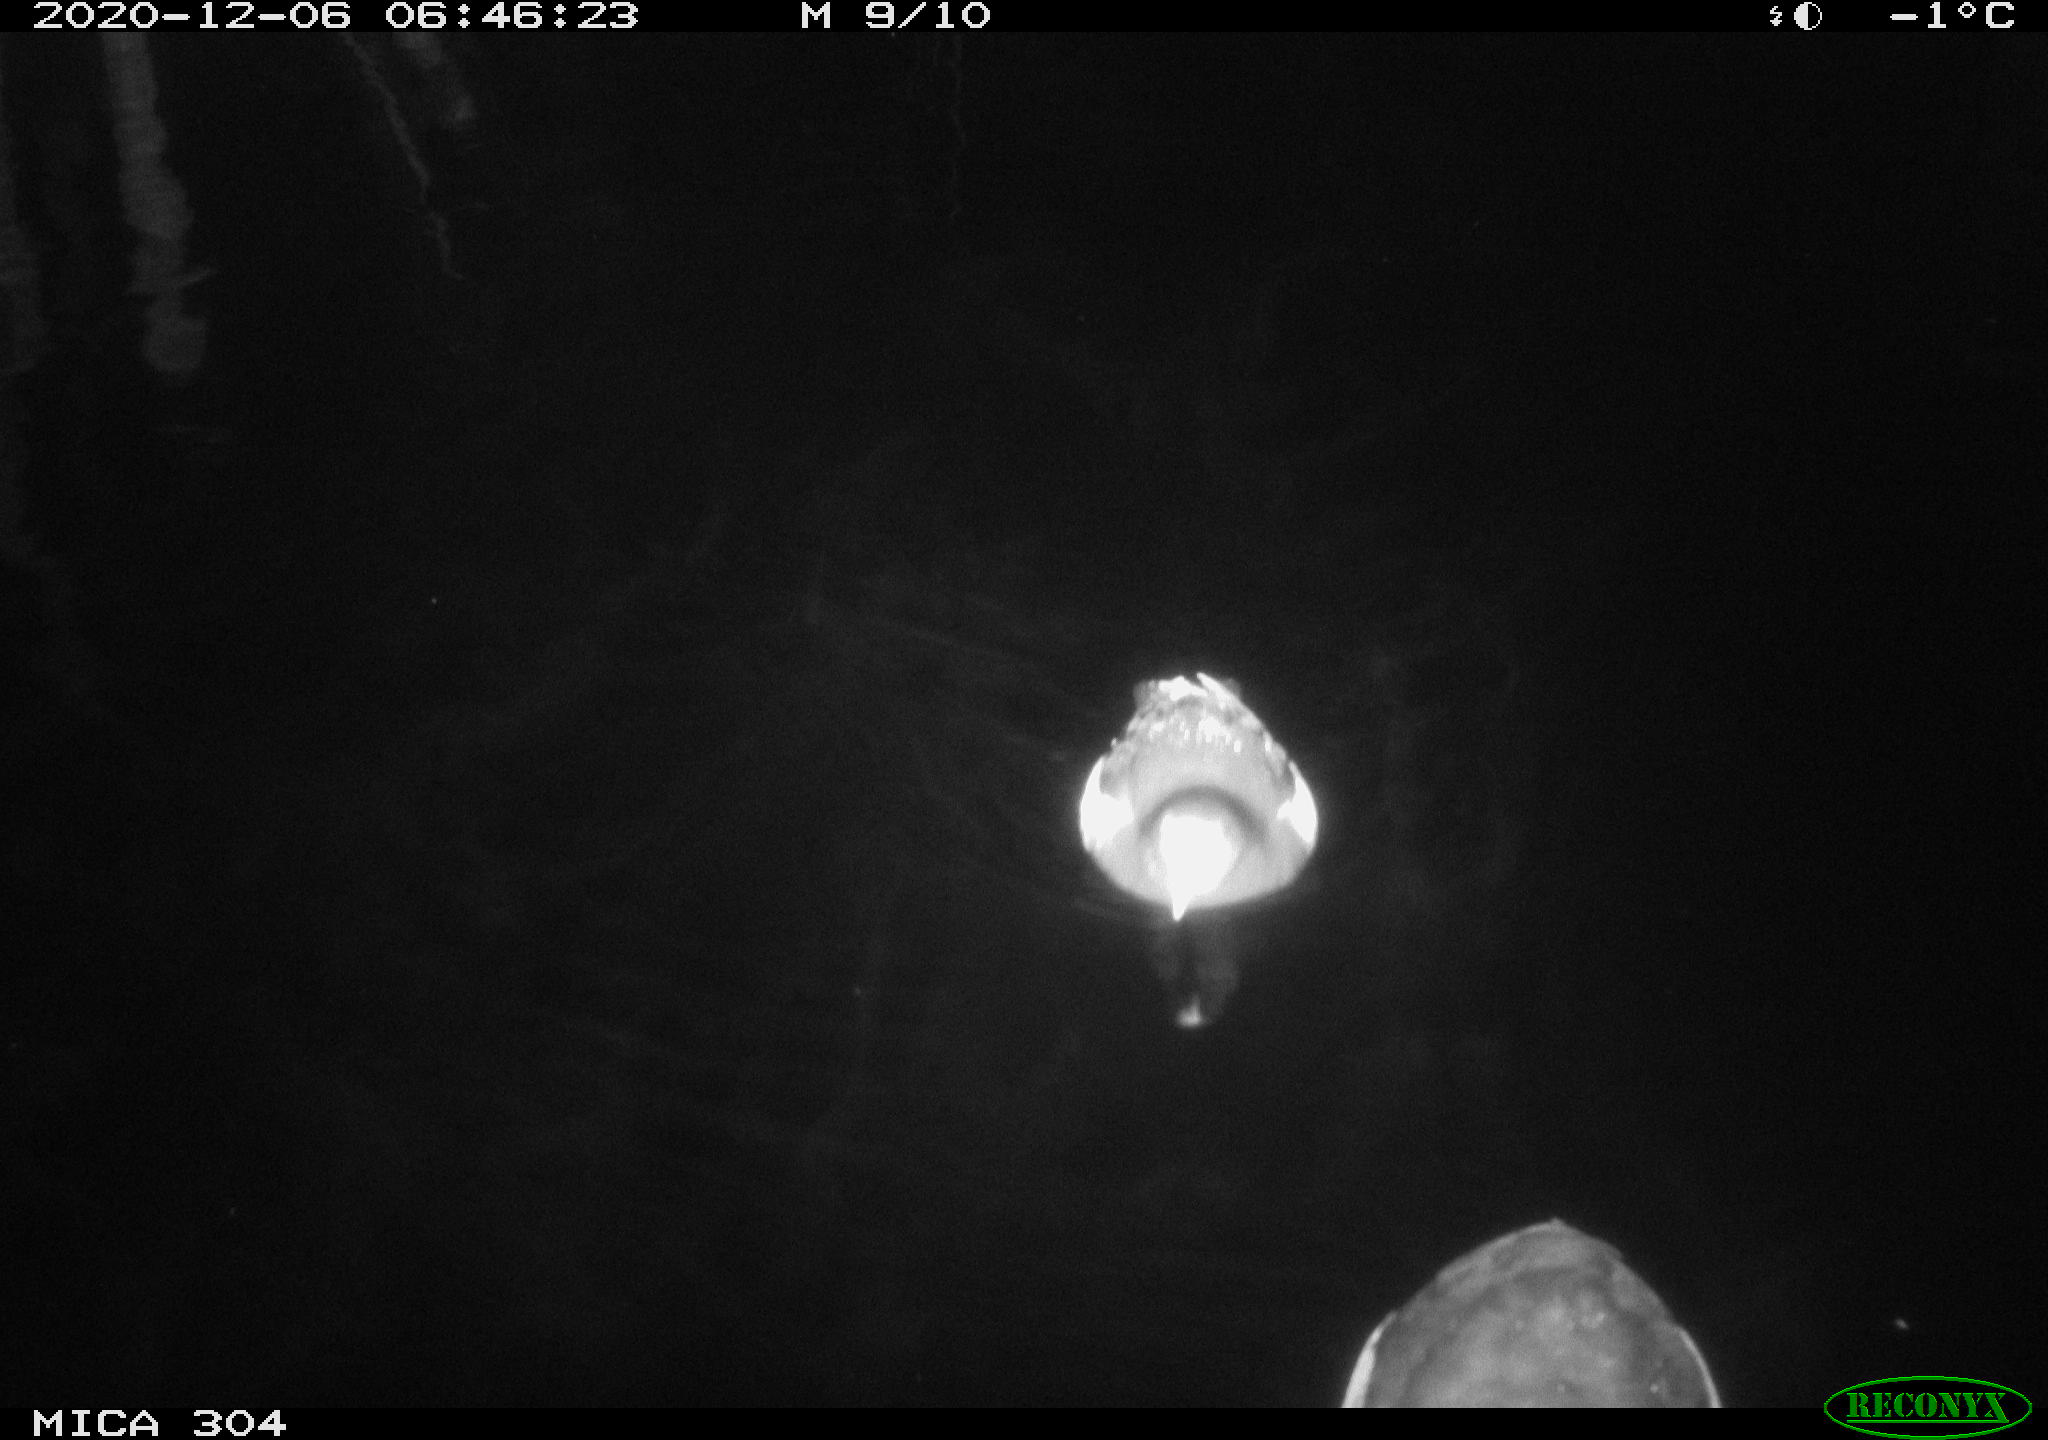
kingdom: Animalia
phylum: Chordata
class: Aves
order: Gruiformes
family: Rallidae
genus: Fulica
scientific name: Fulica atra
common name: Eurasian coot
